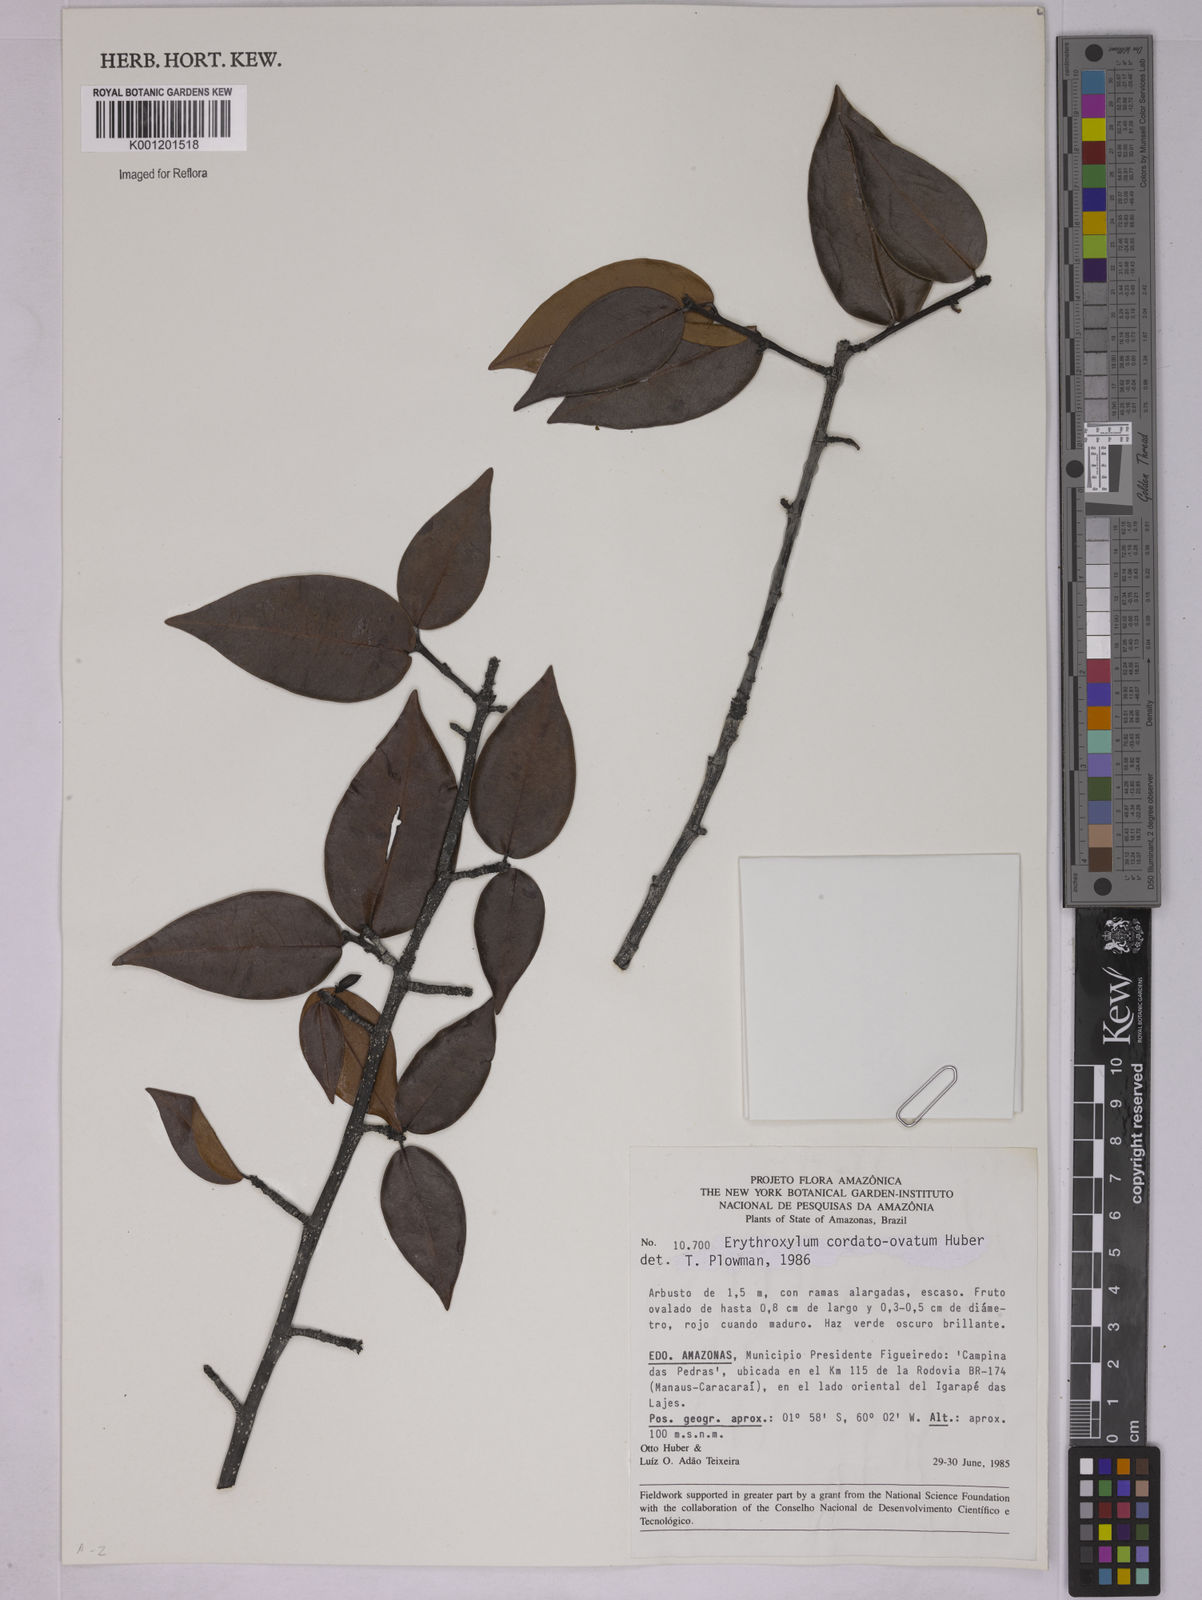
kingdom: Plantae
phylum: Tracheophyta
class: Magnoliopsida
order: Malpighiales
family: Erythroxylaceae
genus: Erythroxylum
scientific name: Erythroxylum cordato-ovatum
